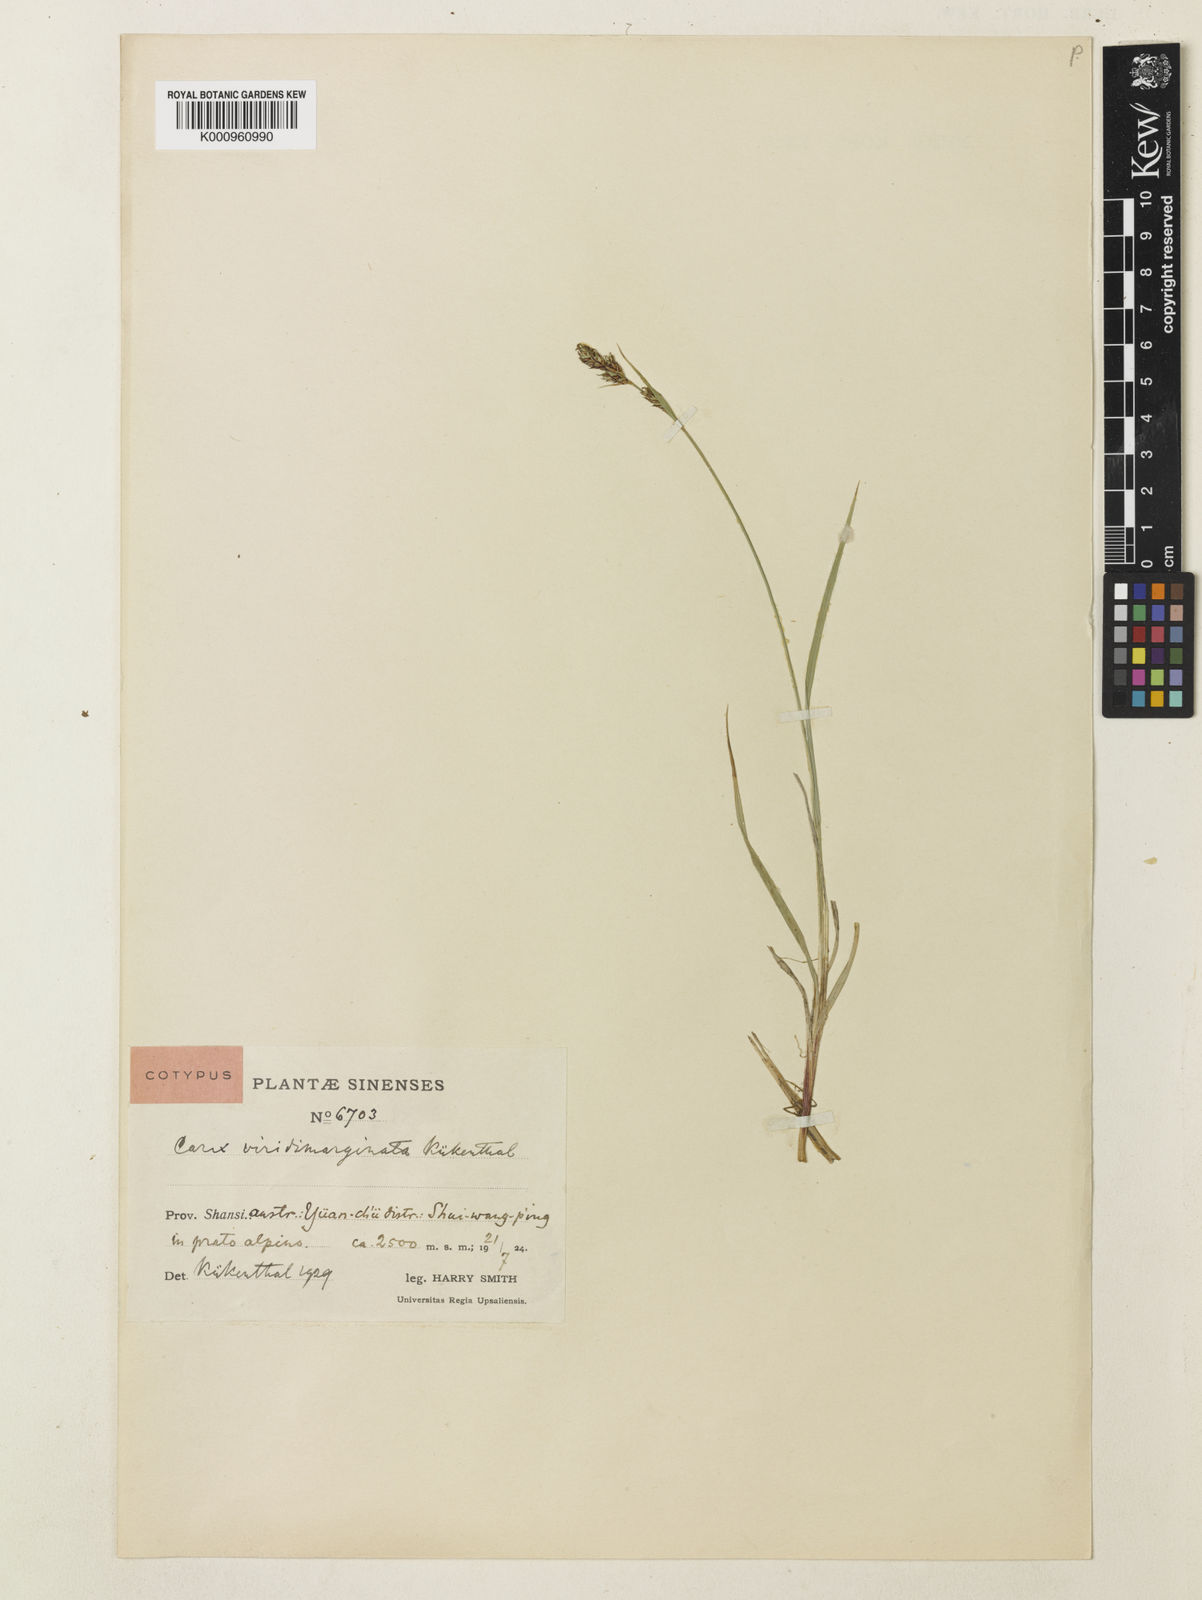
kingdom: Plantae
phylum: Tracheophyta
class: Liliopsida
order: Poales
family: Cyperaceae
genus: Carex
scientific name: Carex
